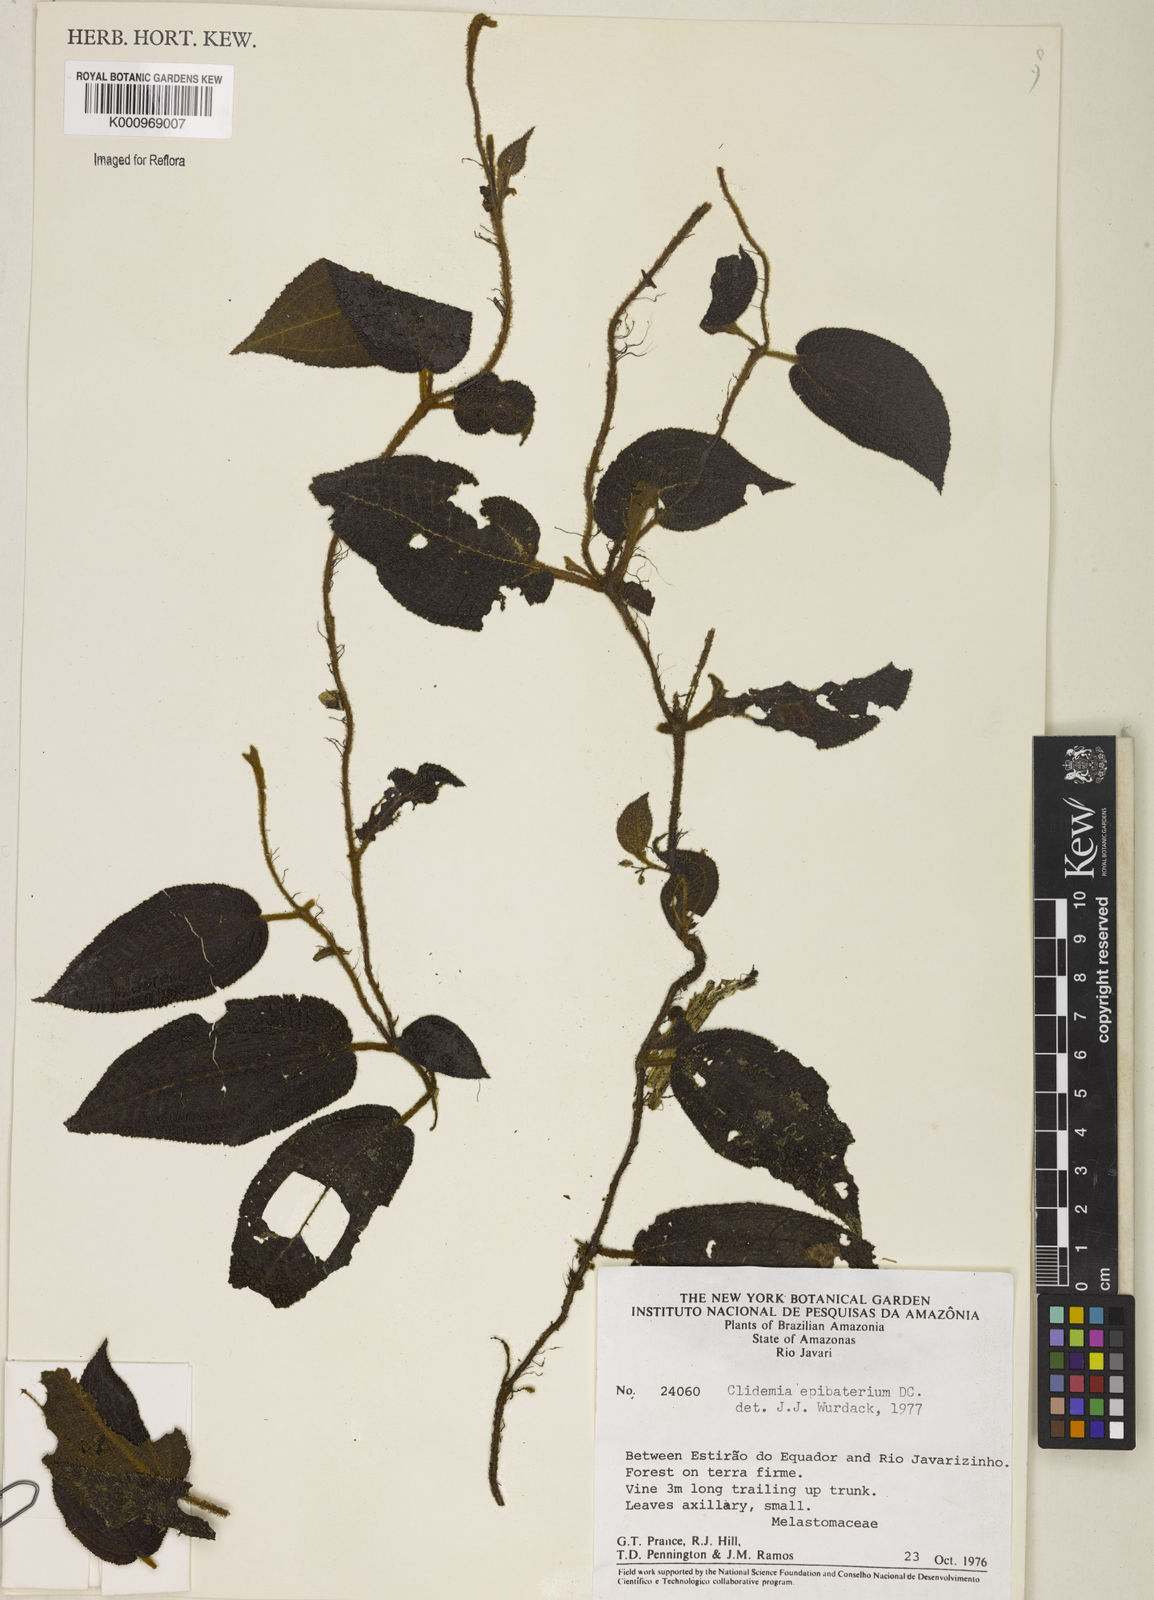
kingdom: Plantae
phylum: Tracheophyta
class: Magnoliopsida
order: Myrtales
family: Melastomataceae
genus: Miconia
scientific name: Miconia epibaterium
